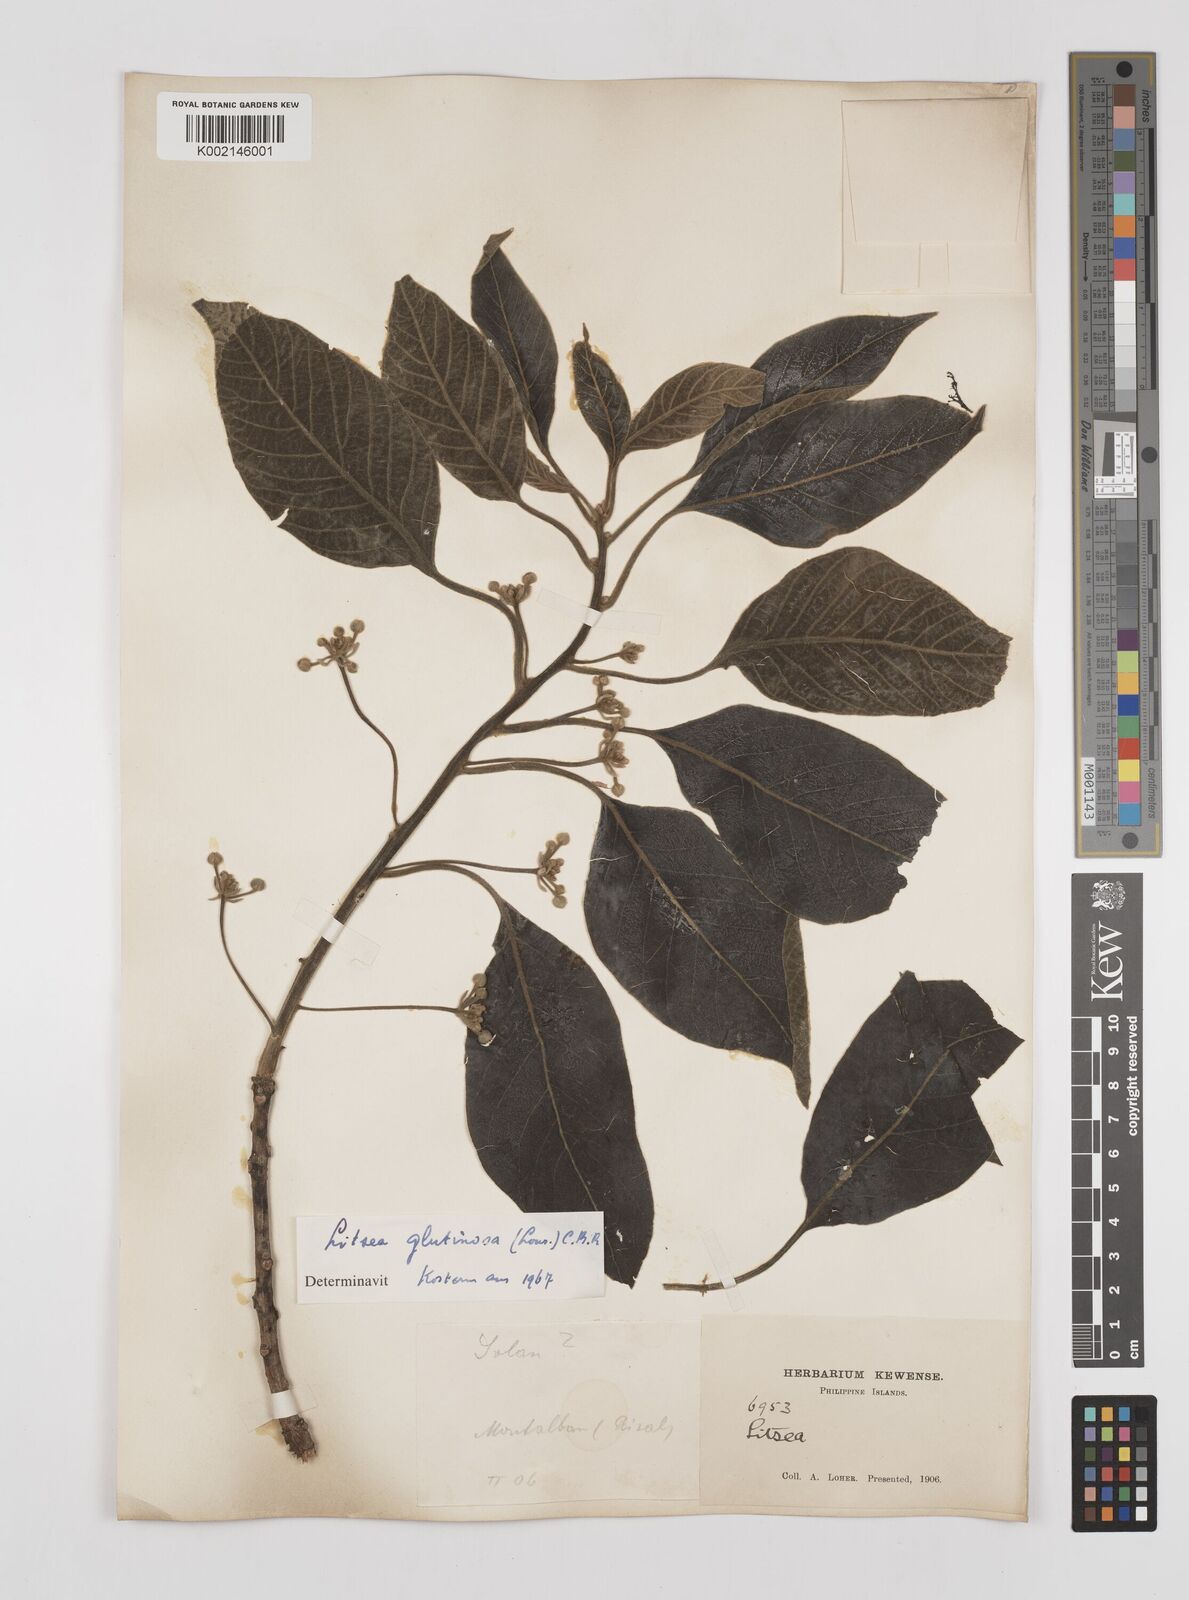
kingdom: Plantae
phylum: Tracheophyta
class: Magnoliopsida
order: Laurales
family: Lauraceae
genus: Litsea
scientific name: Litsea
